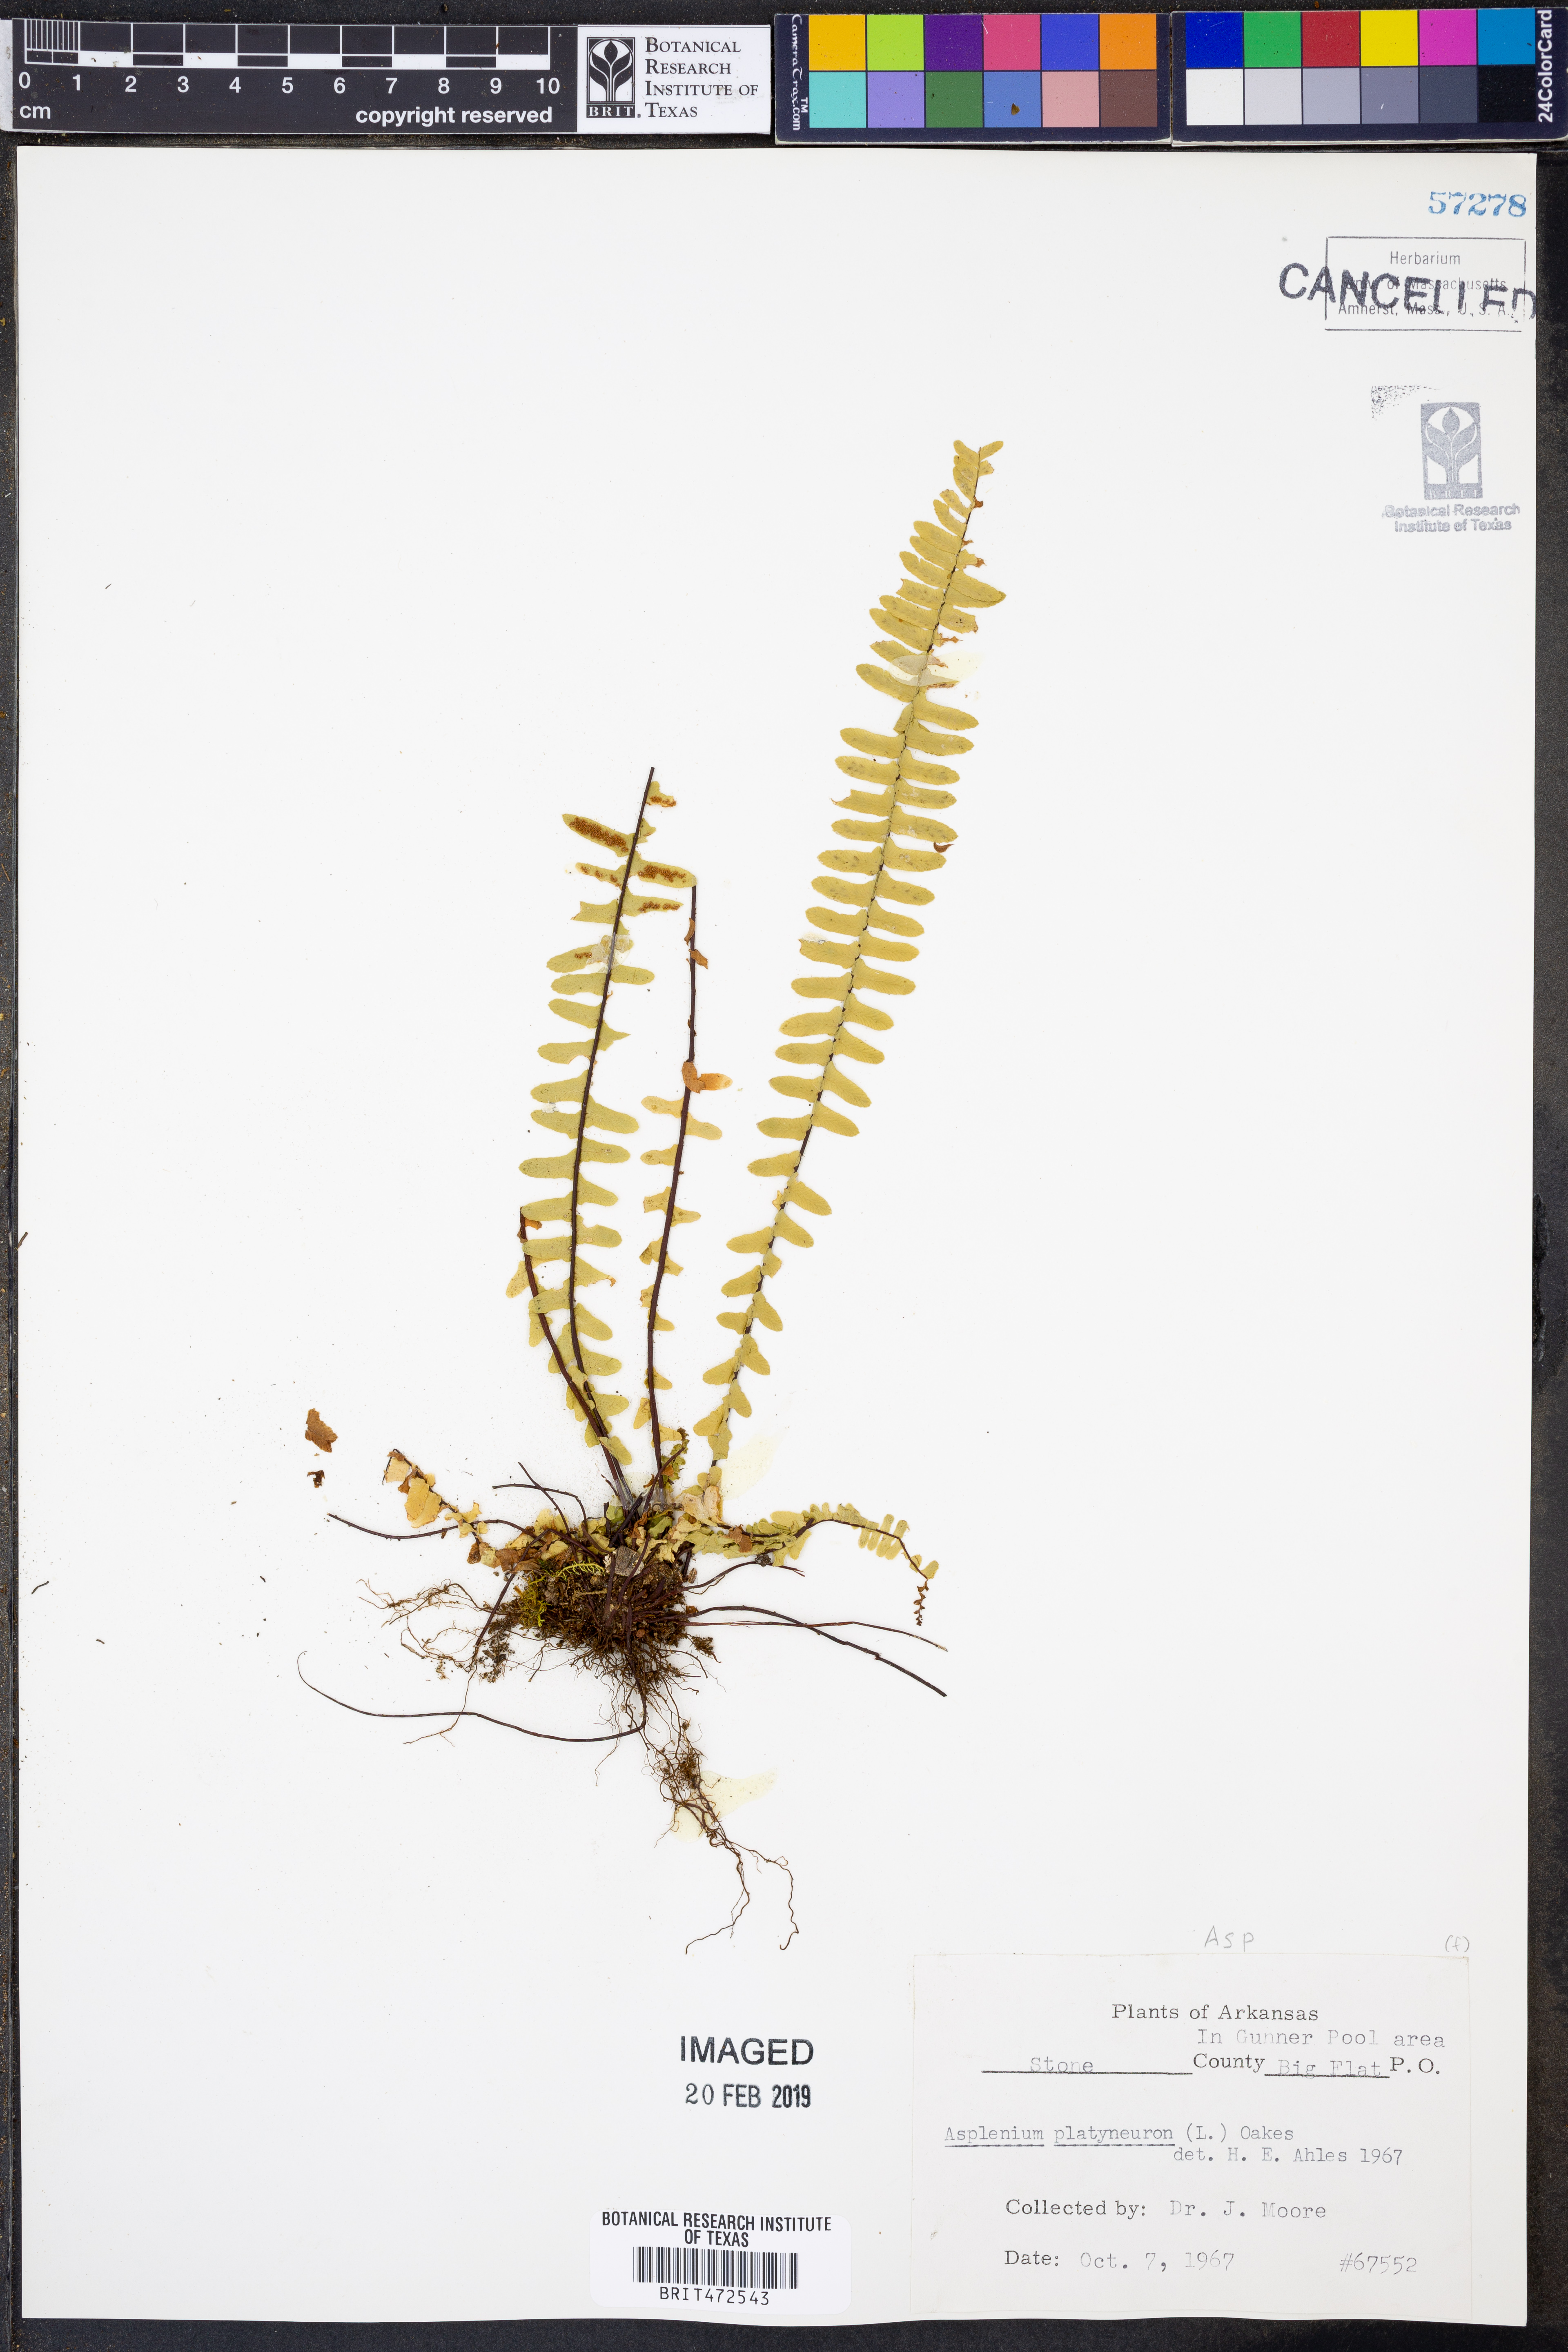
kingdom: Plantae
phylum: Tracheophyta
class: Polypodiopsida
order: Polypodiales
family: Aspleniaceae
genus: Asplenium
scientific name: Asplenium platyneuron
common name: Ebony spleenwort
